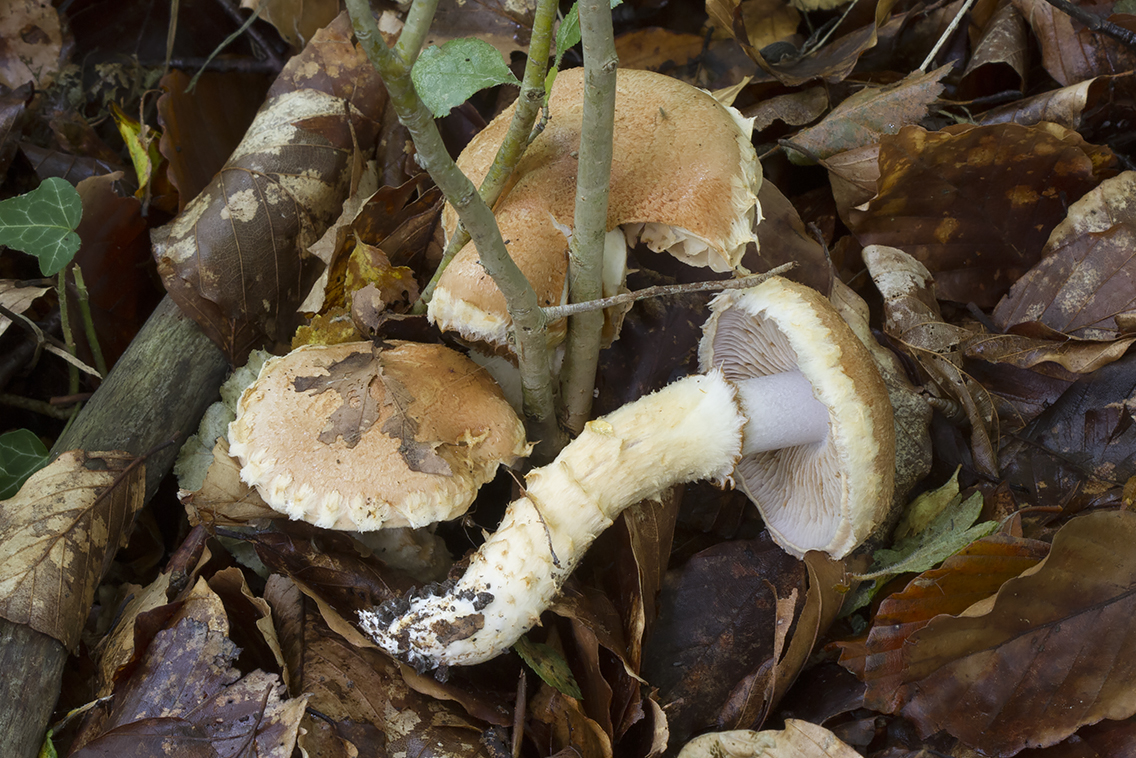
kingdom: Fungi
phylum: Basidiomycota
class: Agaricomycetes
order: Agaricales
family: Cortinariaceae
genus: Phlegmacium
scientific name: Phlegmacium vulpinum
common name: ringbæltet slørhat
